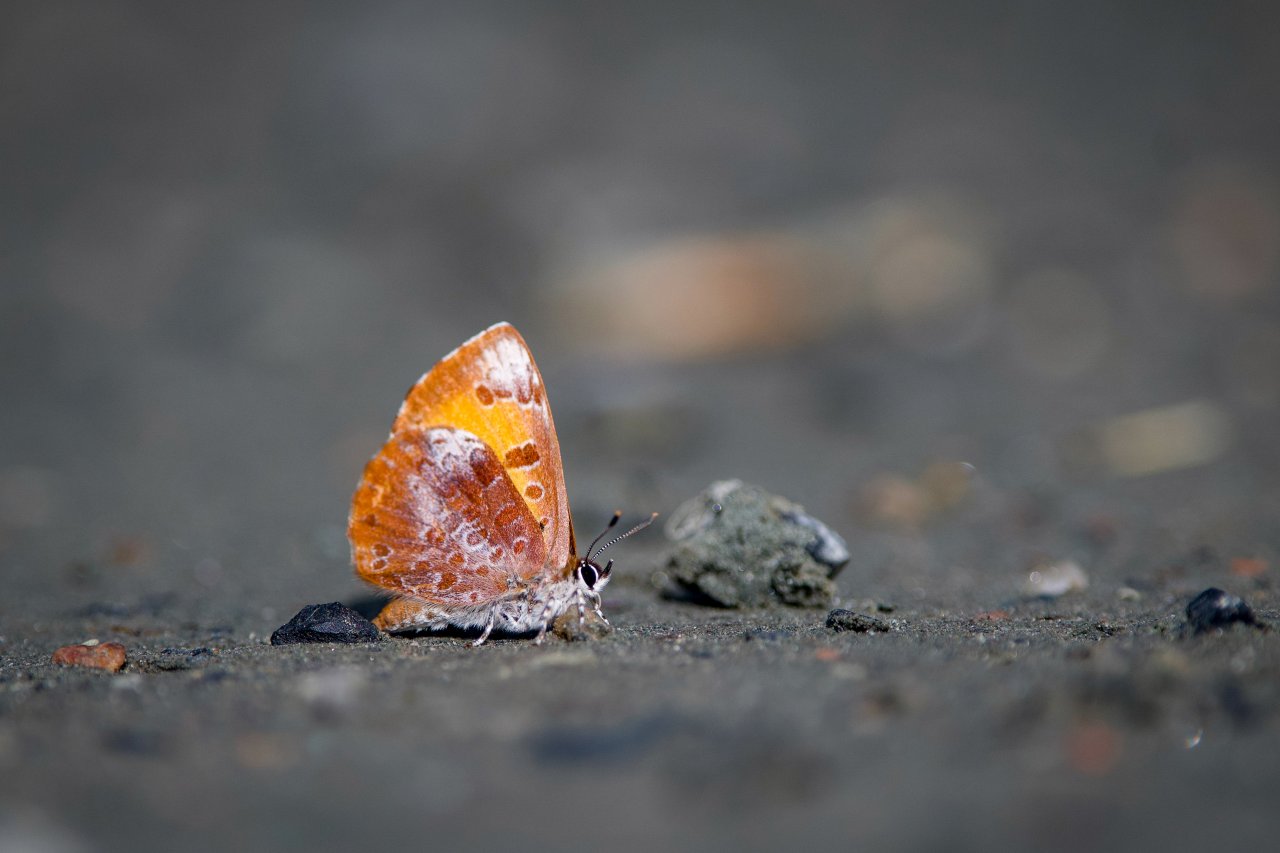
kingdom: Animalia
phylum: Arthropoda
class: Insecta
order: Lepidoptera
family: Lycaenidae
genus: Feniseca
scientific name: Feniseca tarquinius
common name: Harvester
